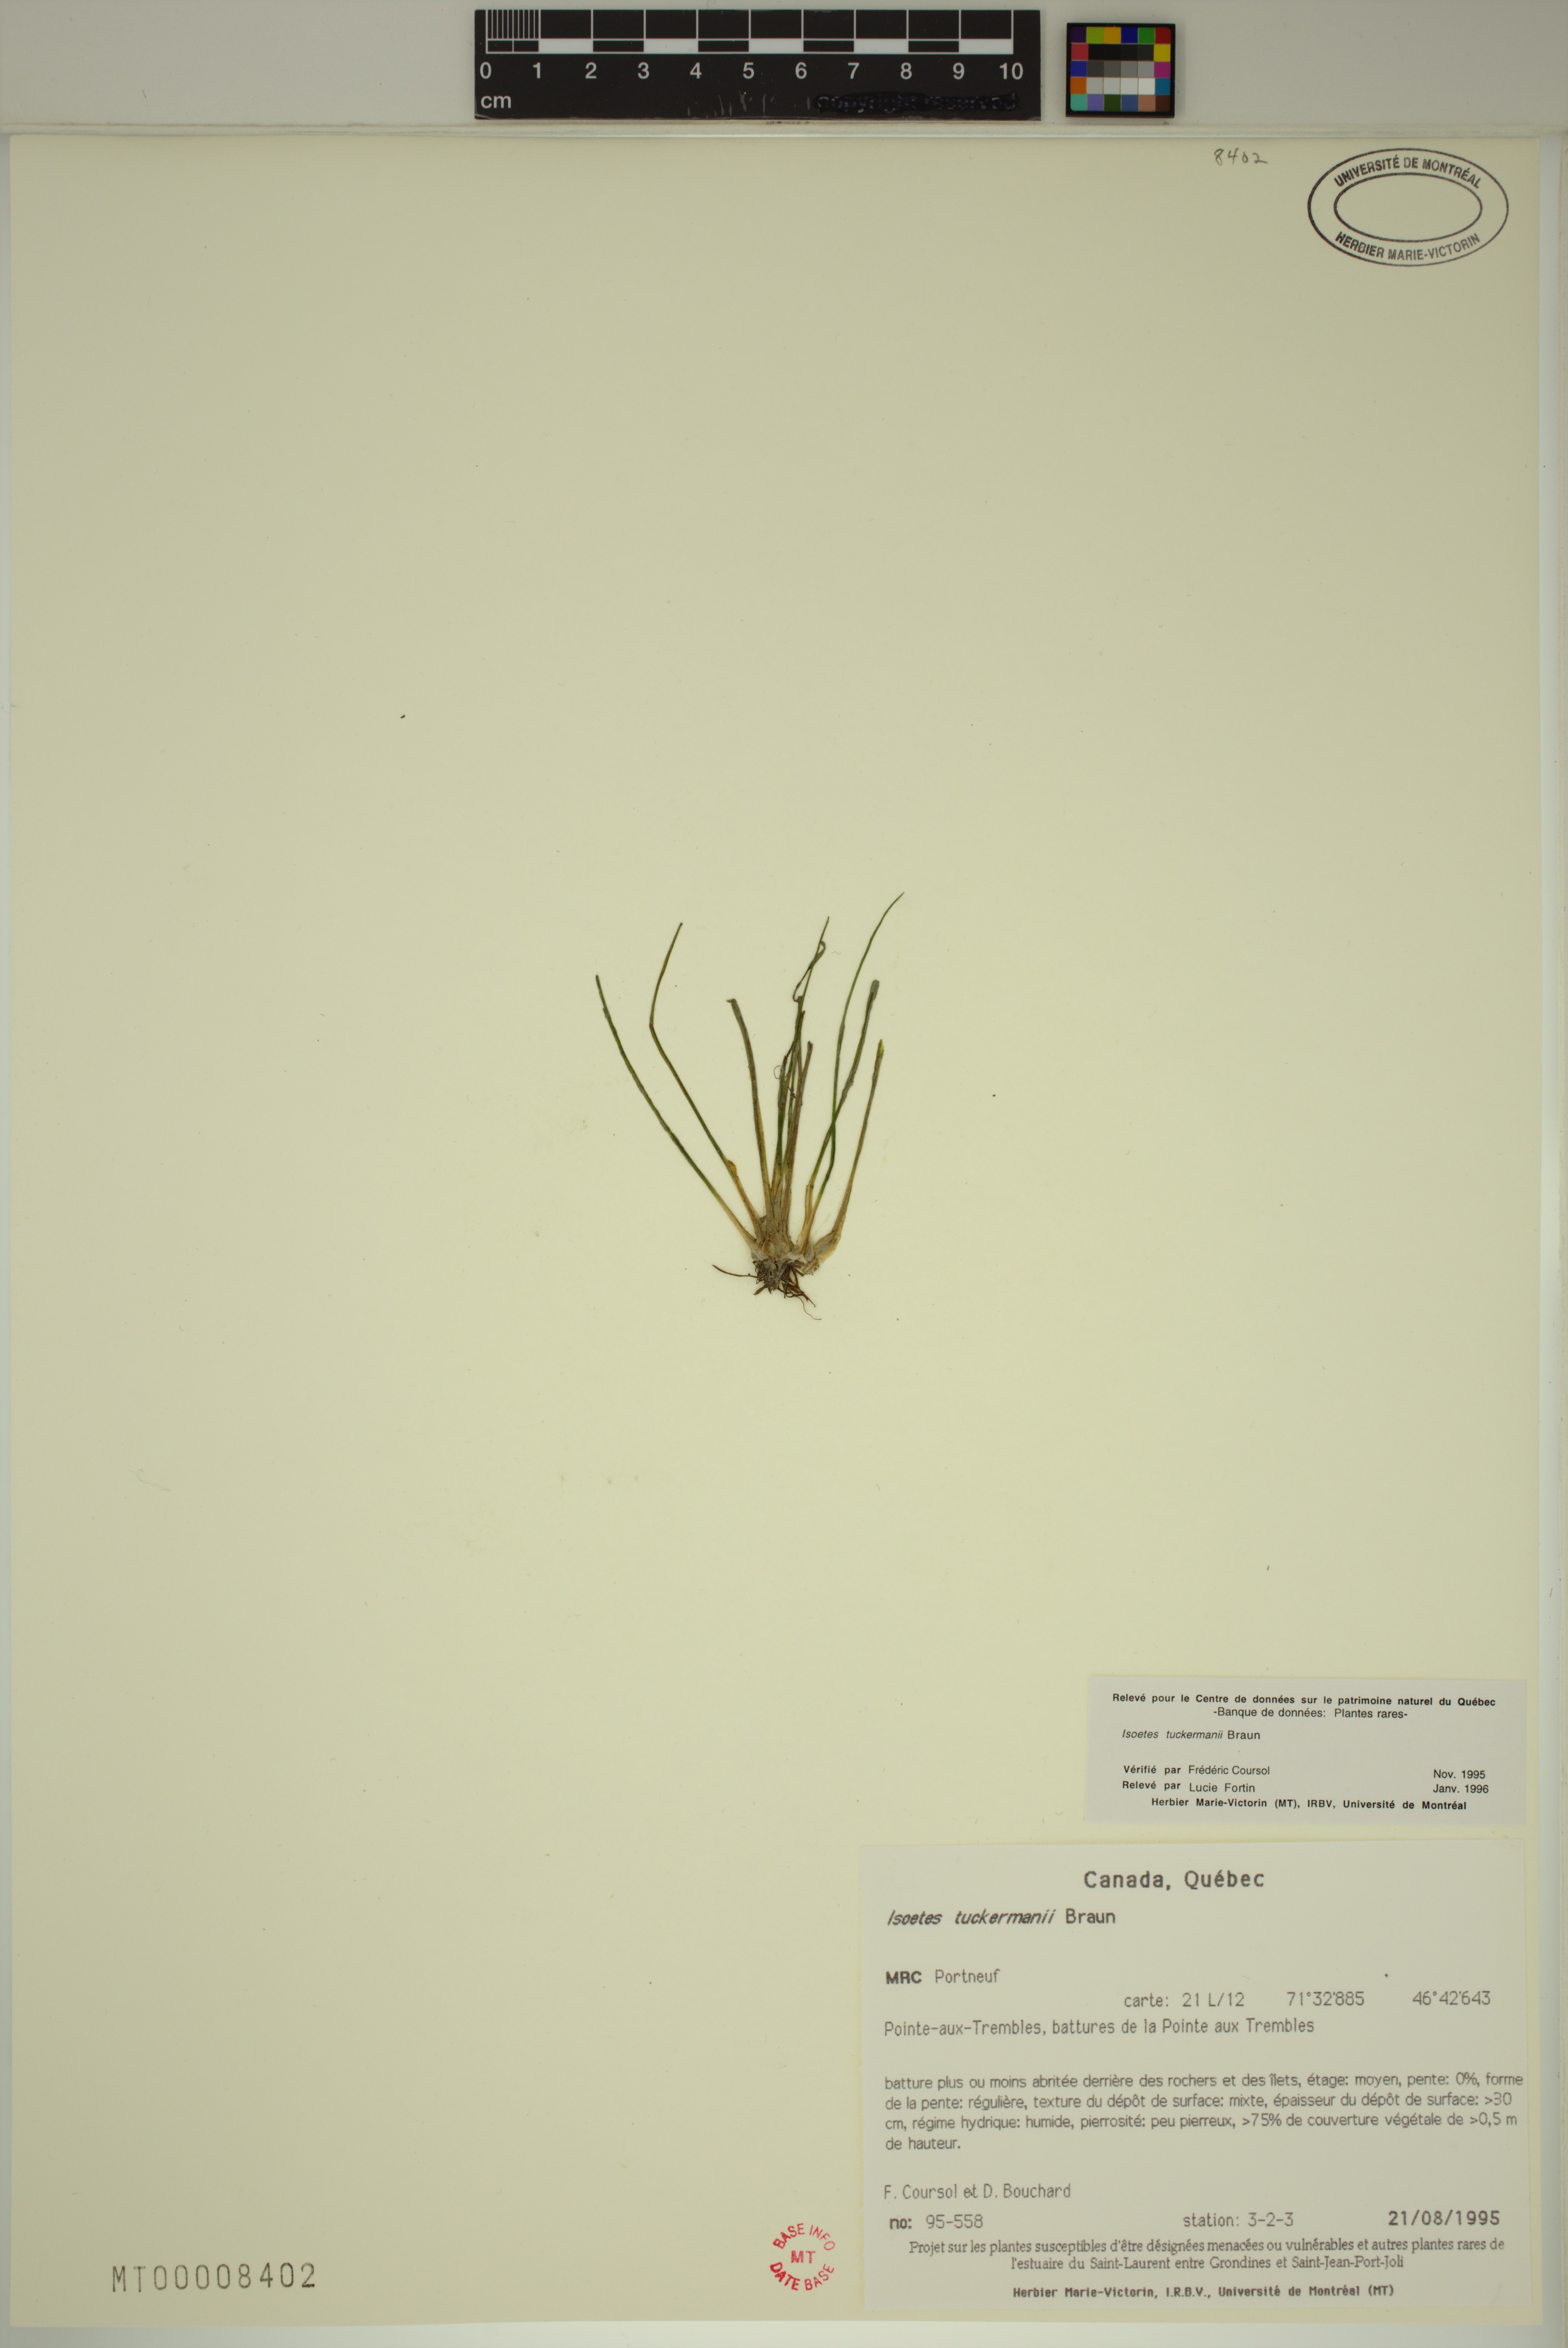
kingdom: Plantae
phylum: Tracheophyta
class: Lycopodiopsida
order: Isoetales
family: Isoetaceae
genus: Isoetes
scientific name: Isoetes laurentiana
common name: St. lawrence quillwort
